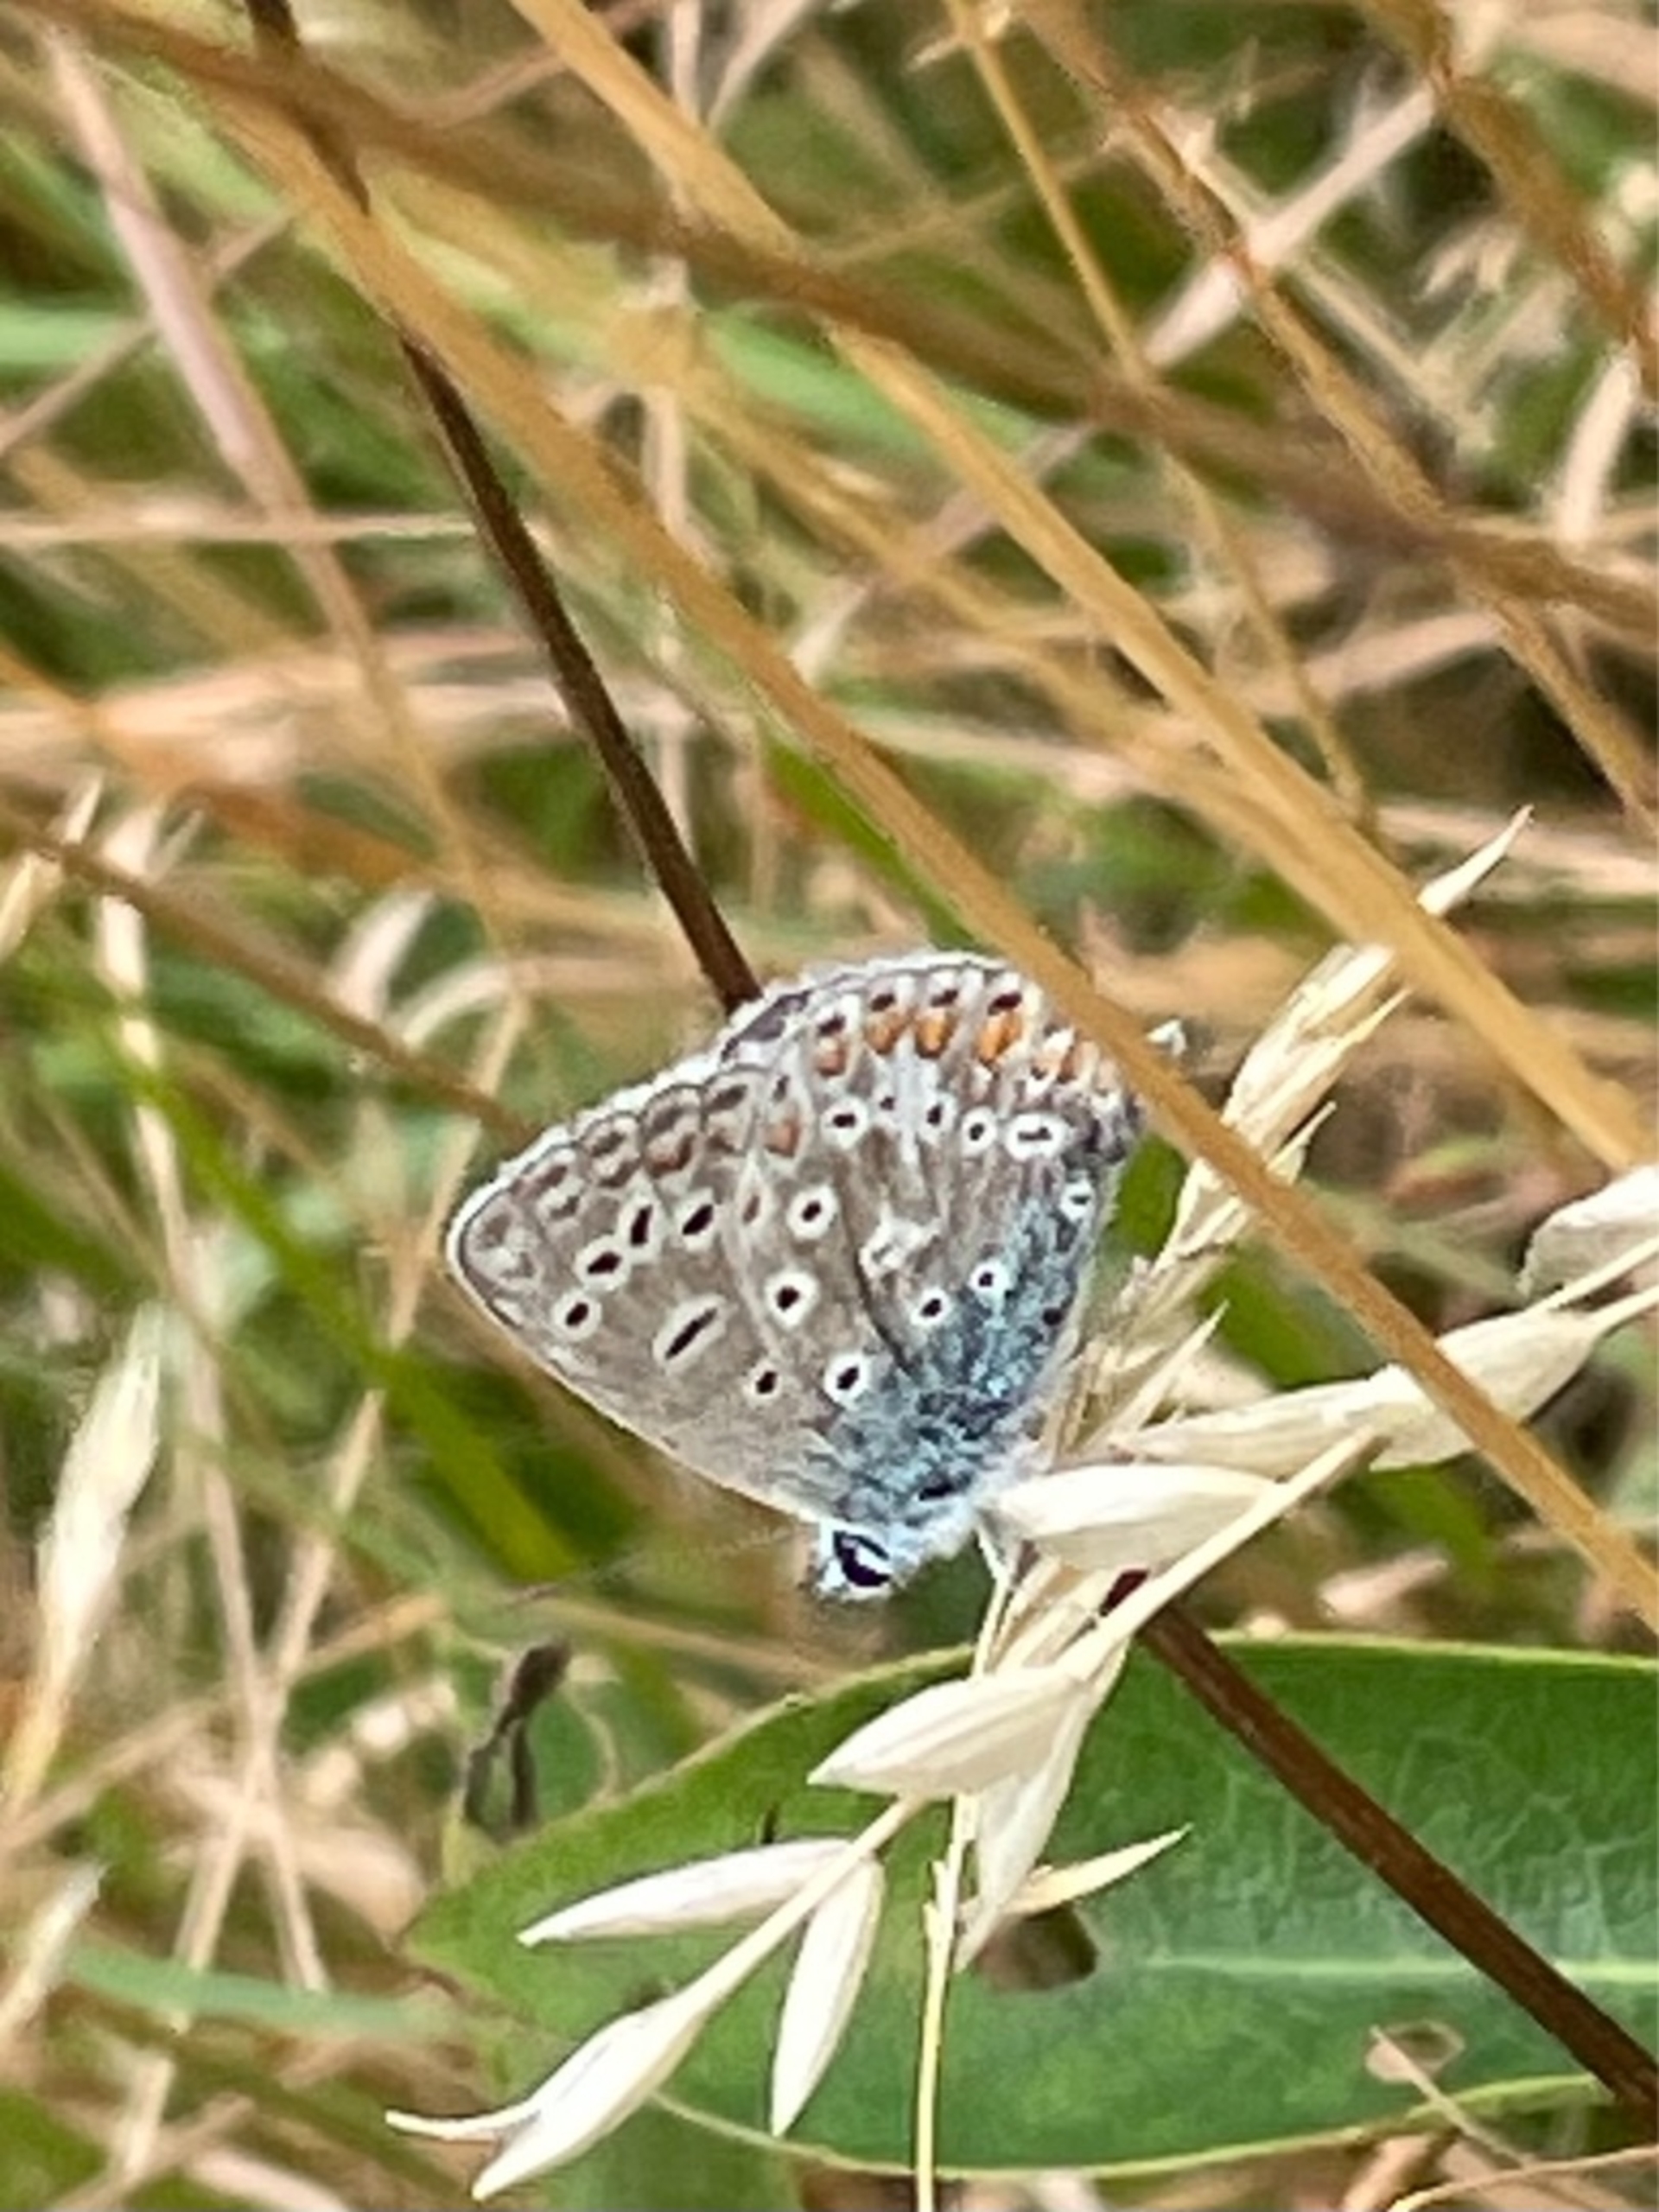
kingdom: Animalia
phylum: Arthropoda
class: Insecta
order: Lepidoptera
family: Lycaenidae
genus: Polyommatus
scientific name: Polyommatus icarus
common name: Almindelig blåfugl
